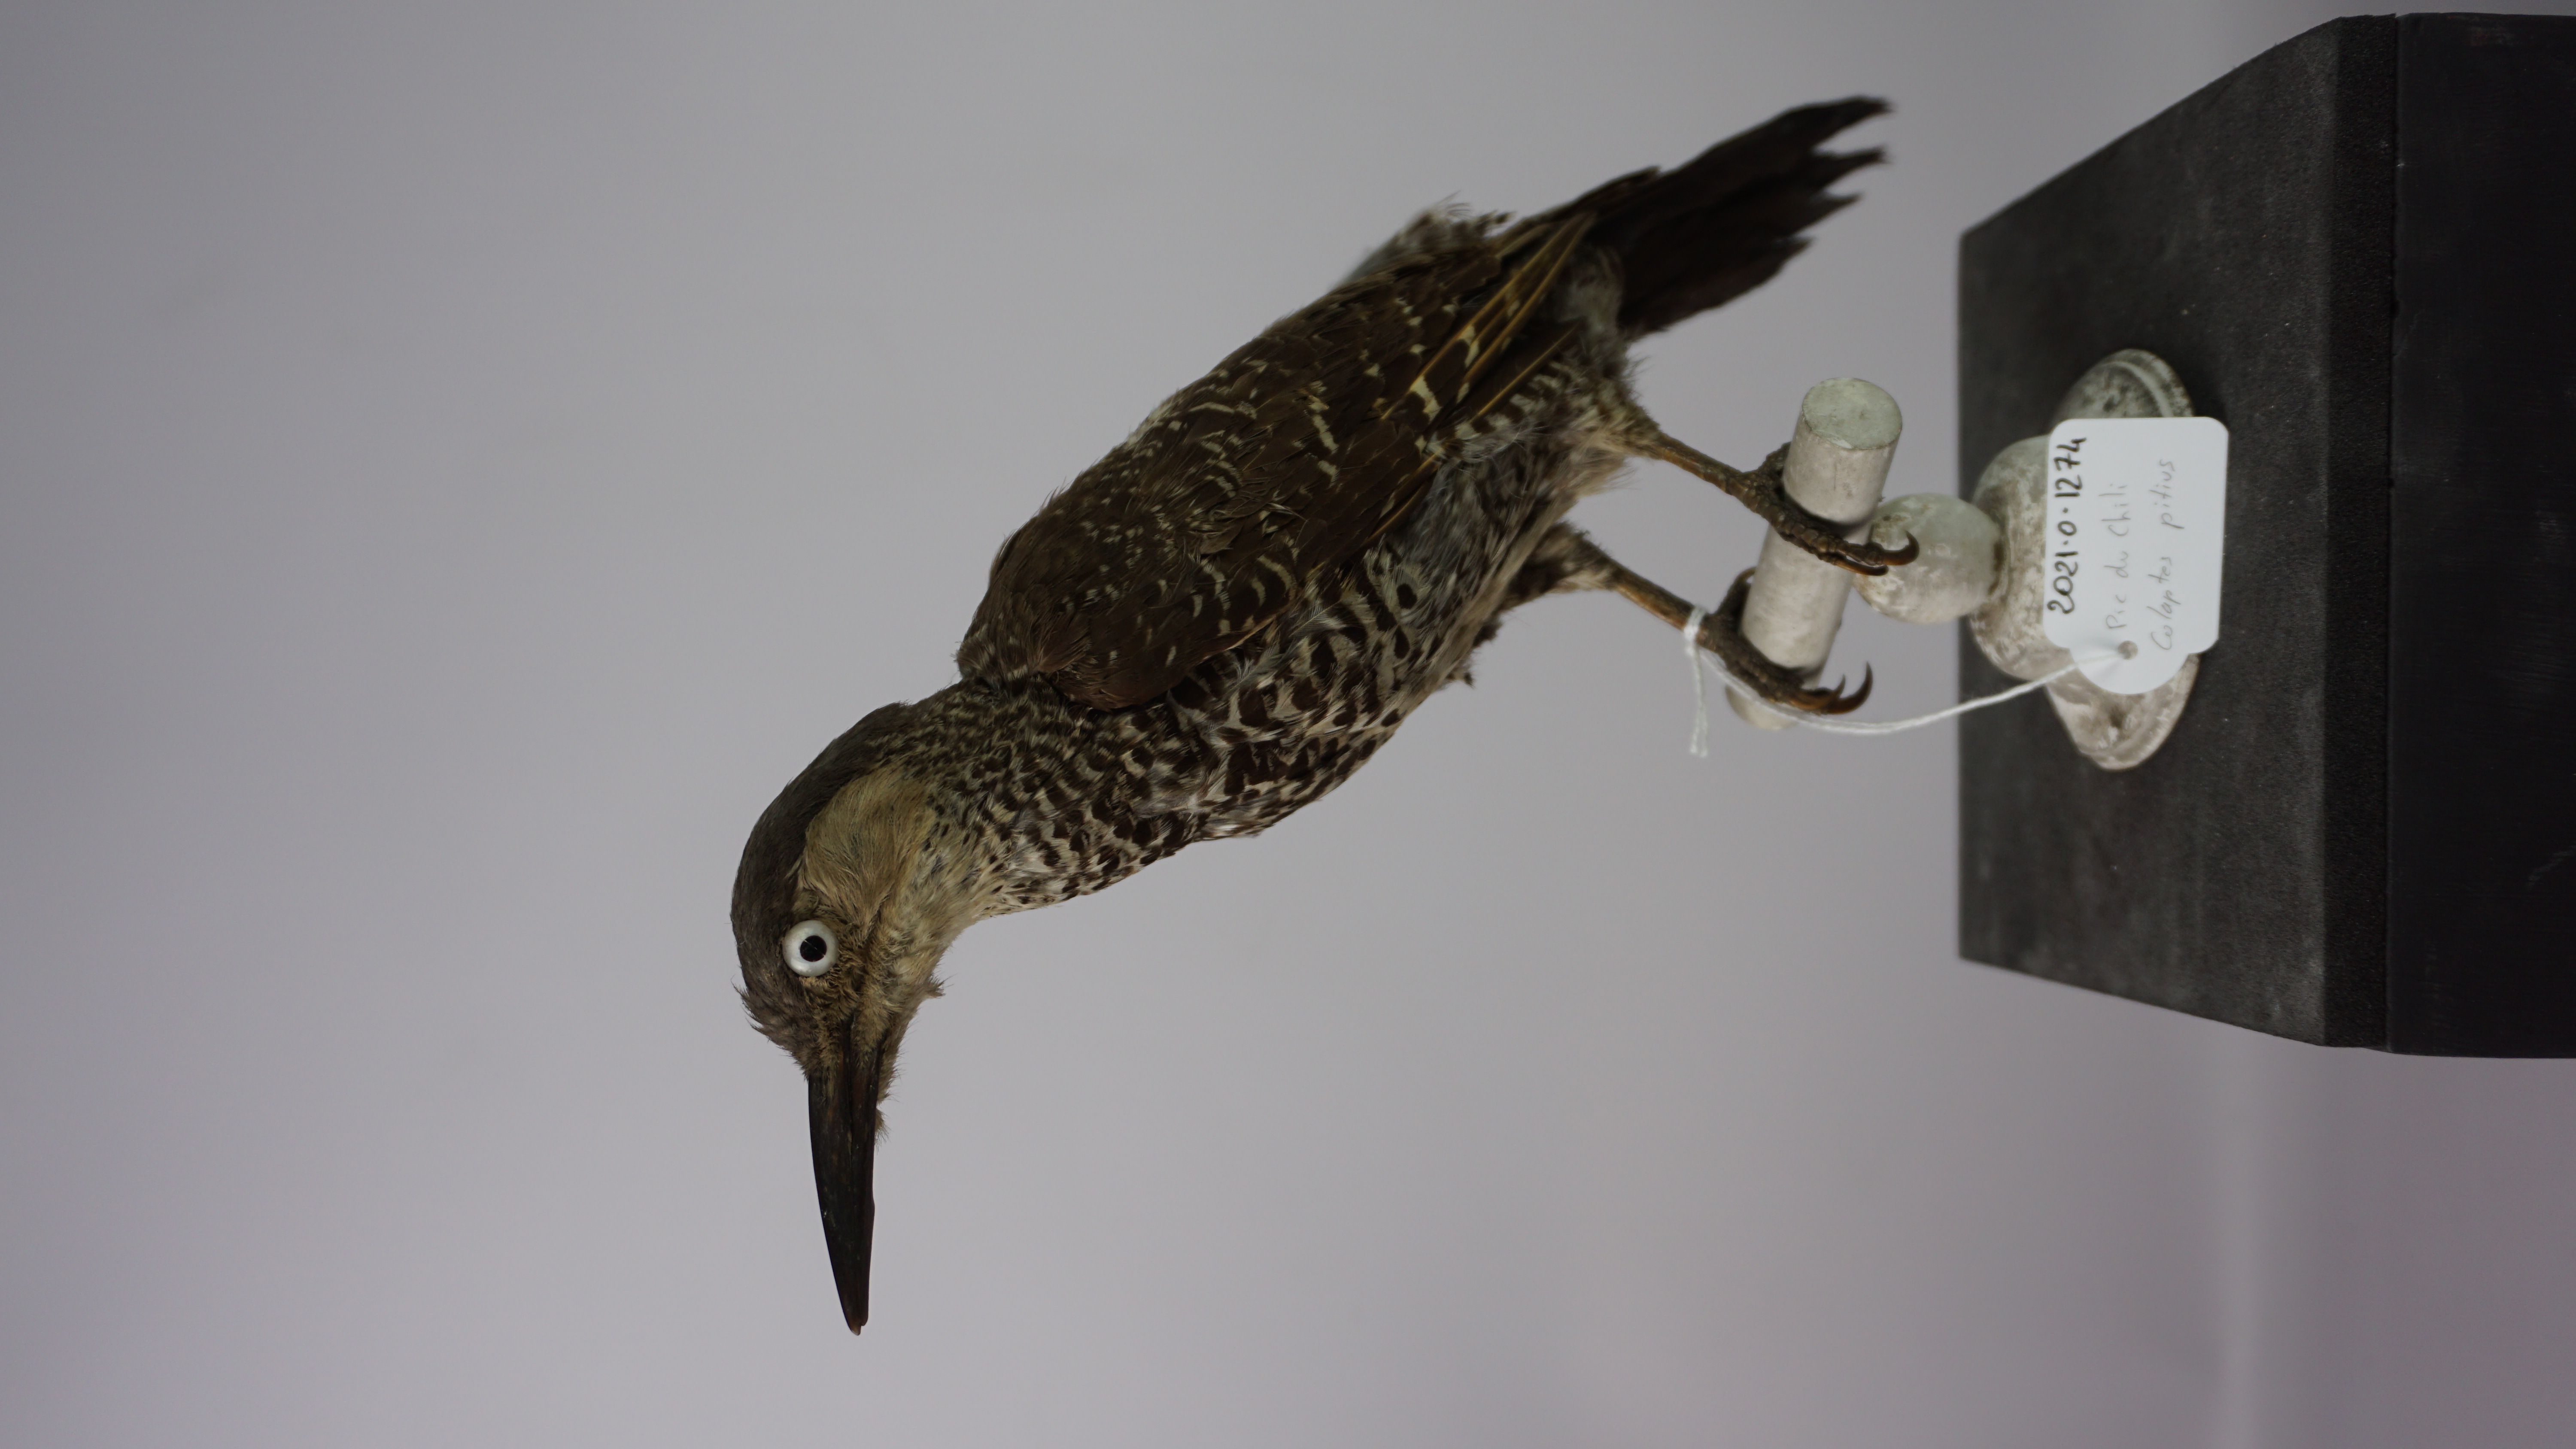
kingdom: Animalia
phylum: Chordata
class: Aves
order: Piciformes
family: Picidae
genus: Colaptes
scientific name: Colaptes pitius
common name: Chilean flicker
